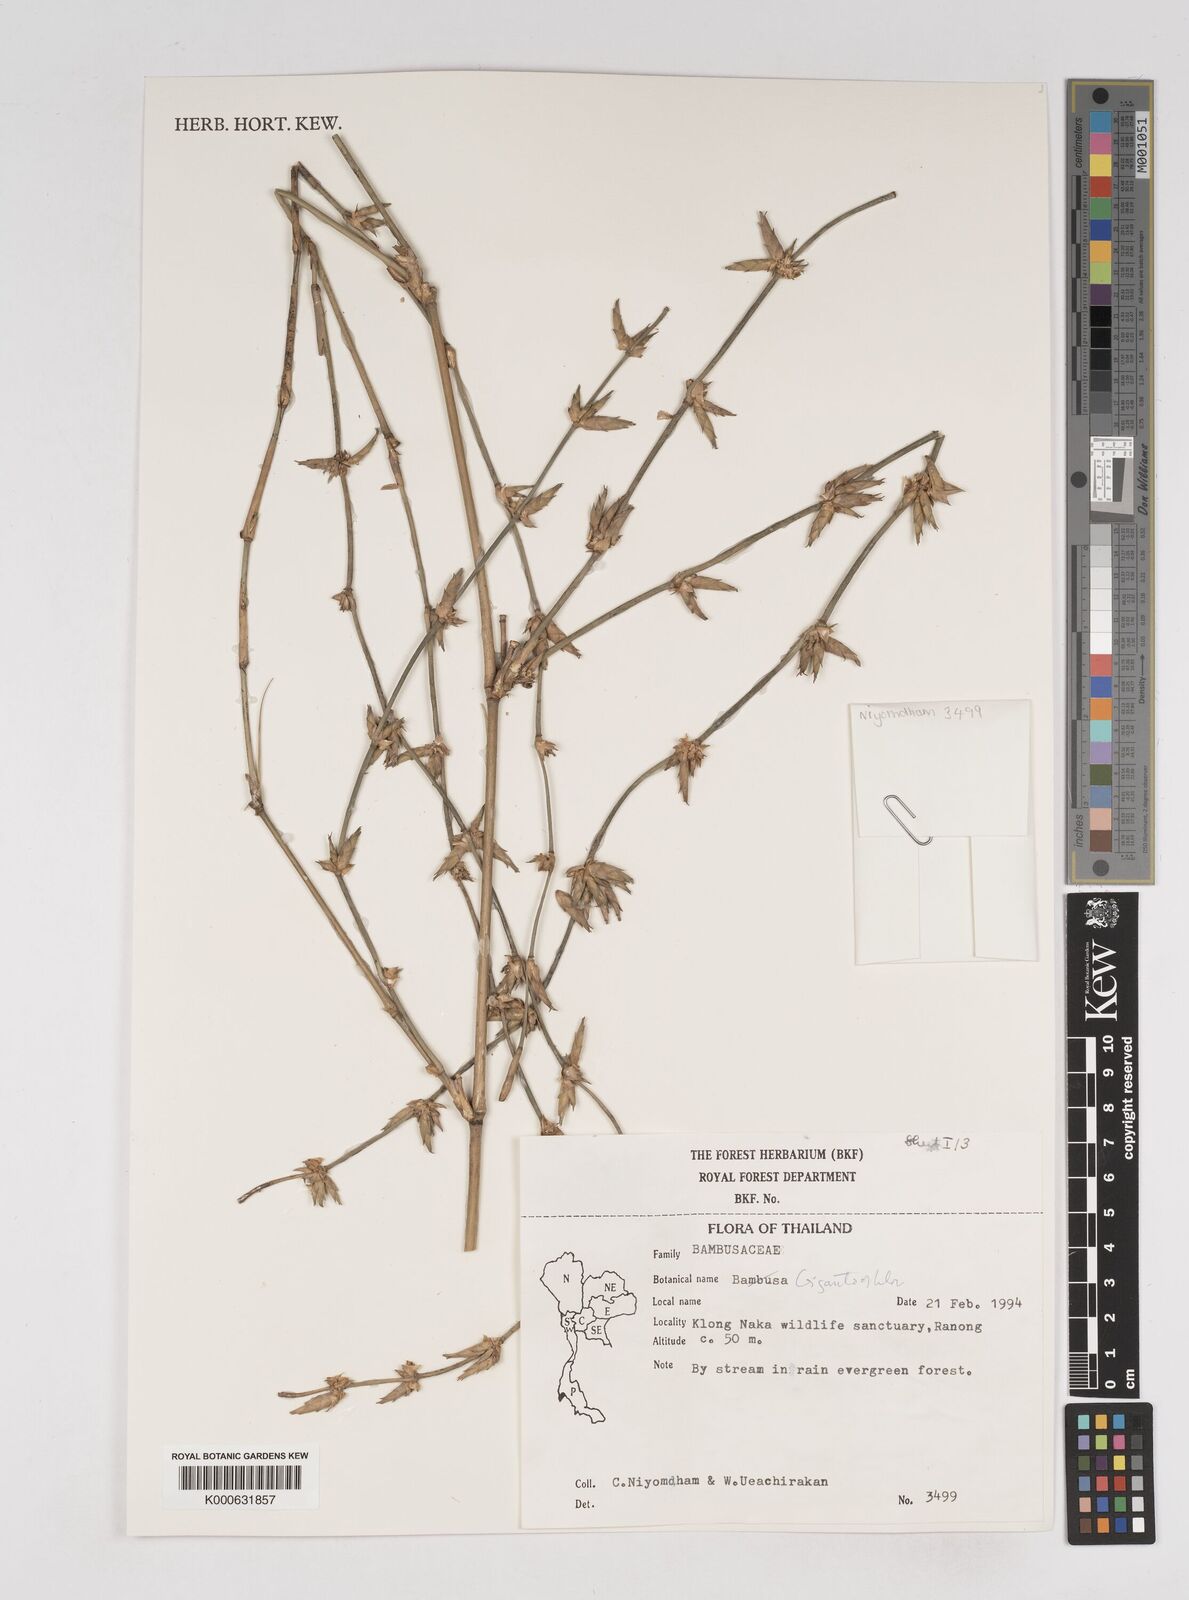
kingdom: Plantae
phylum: Tracheophyta
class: Liliopsida
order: Poales
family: Poaceae
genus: Gigantochloa
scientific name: Gigantochloa
